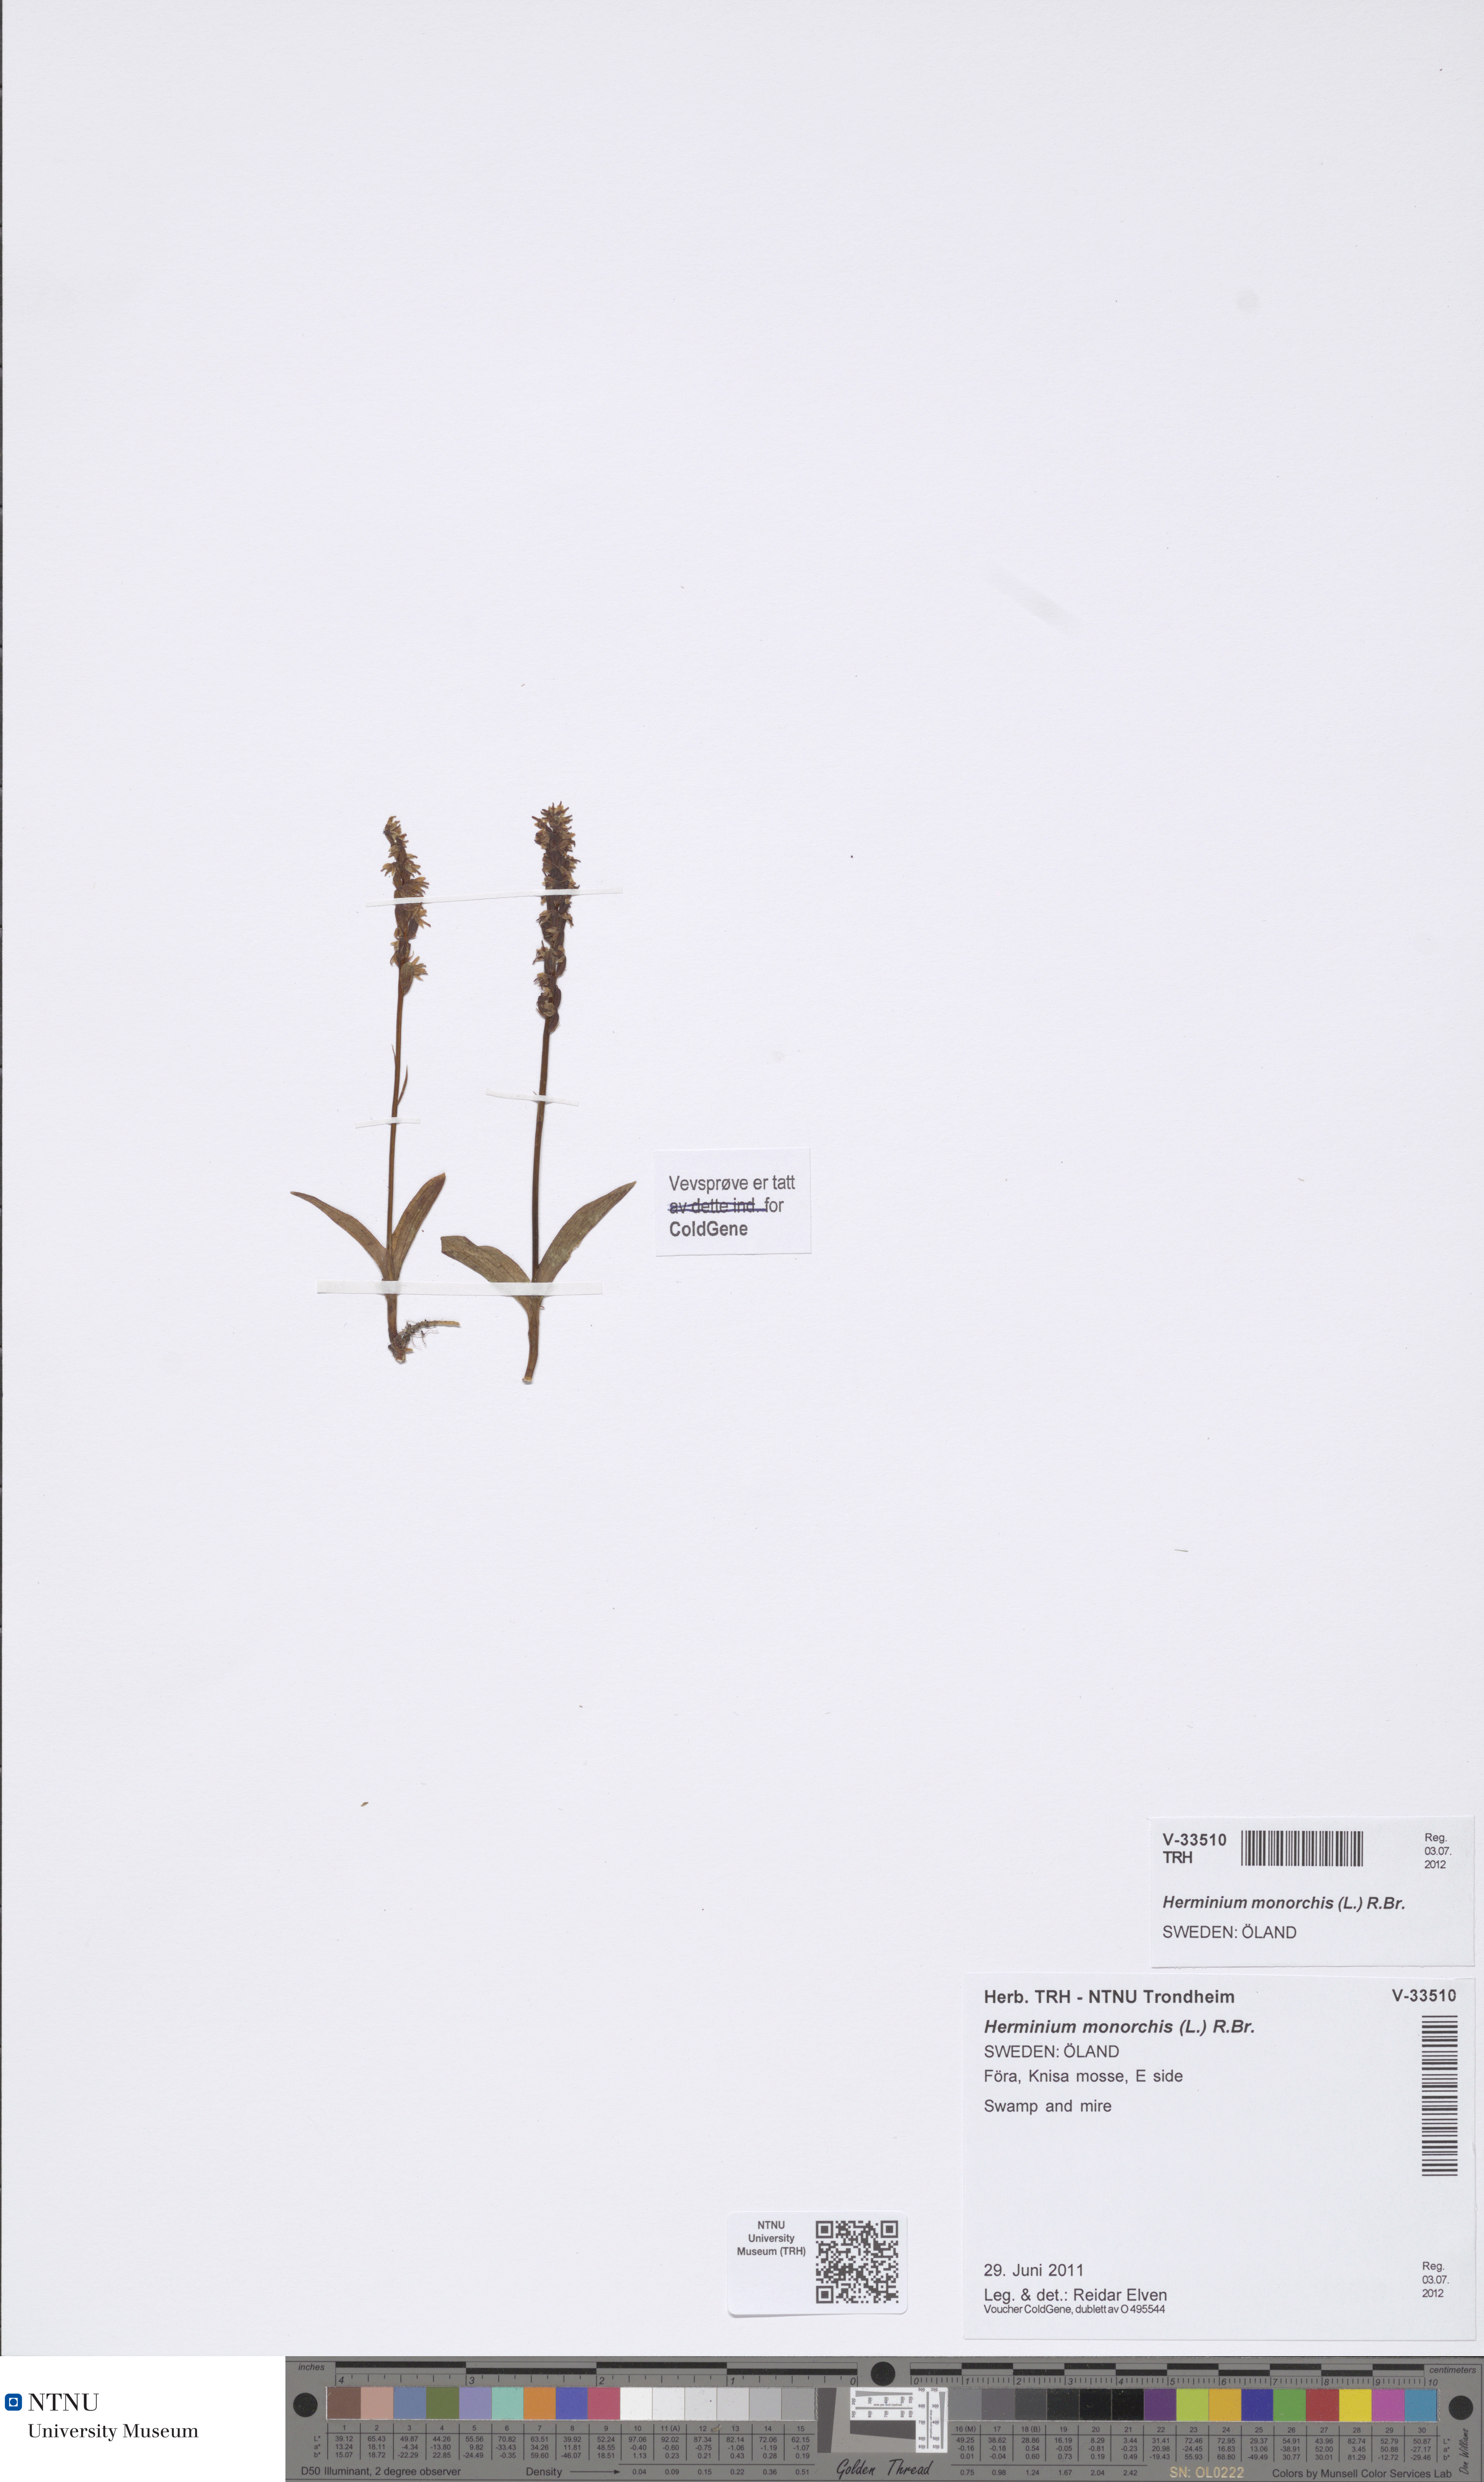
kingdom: Plantae
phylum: Tracheophyta
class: Liliopsida
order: Asparagales
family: Orchidaceae
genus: Herminium
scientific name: Herminium monorchis
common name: Musk orchid
